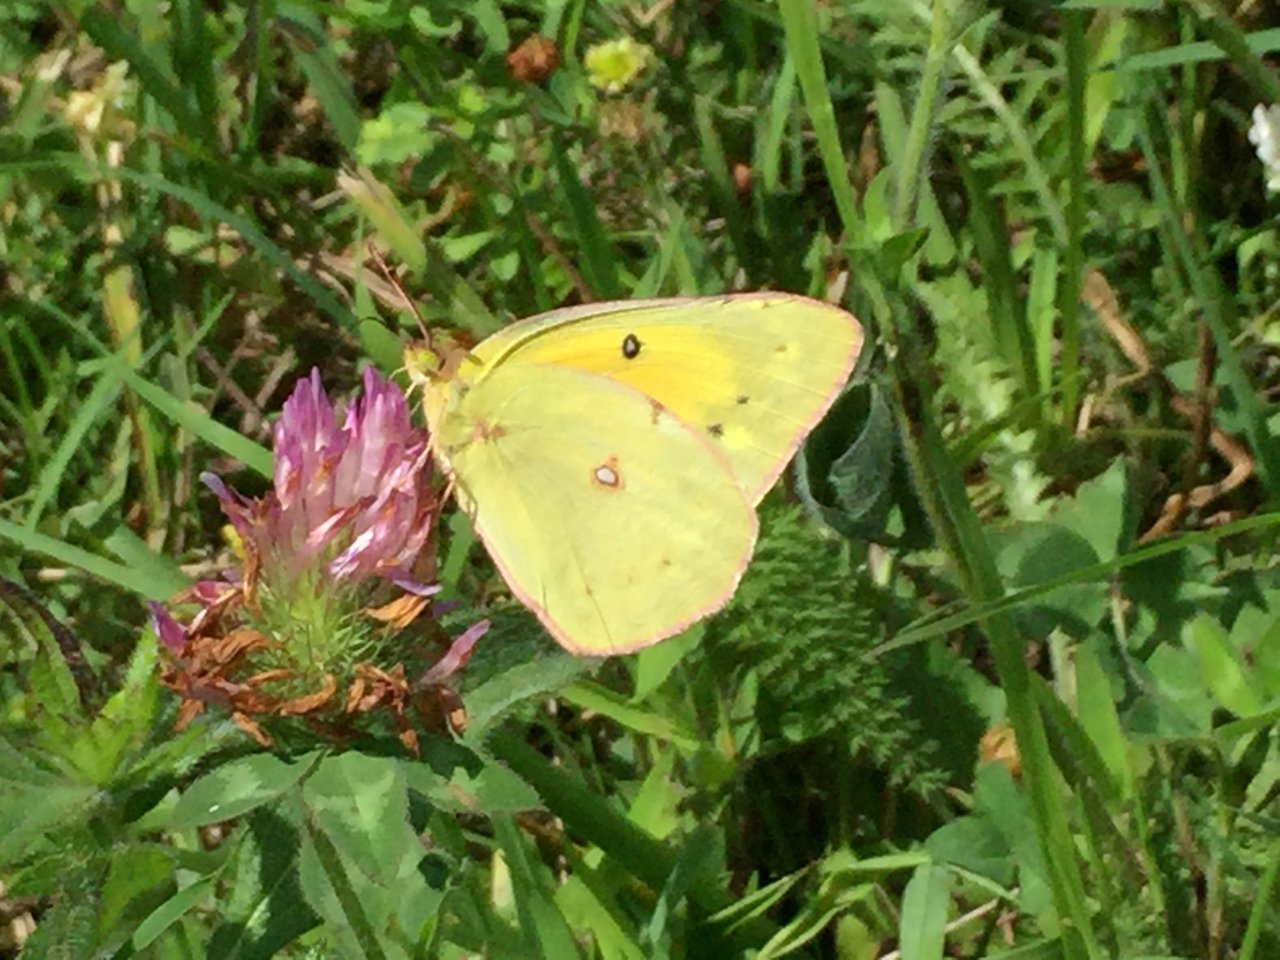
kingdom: Animalia
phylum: Arthropoda
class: Insecta
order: Lepidoptera
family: Pieridae
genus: Colias
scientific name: Colias eurytheme
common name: Orange Sulphur
